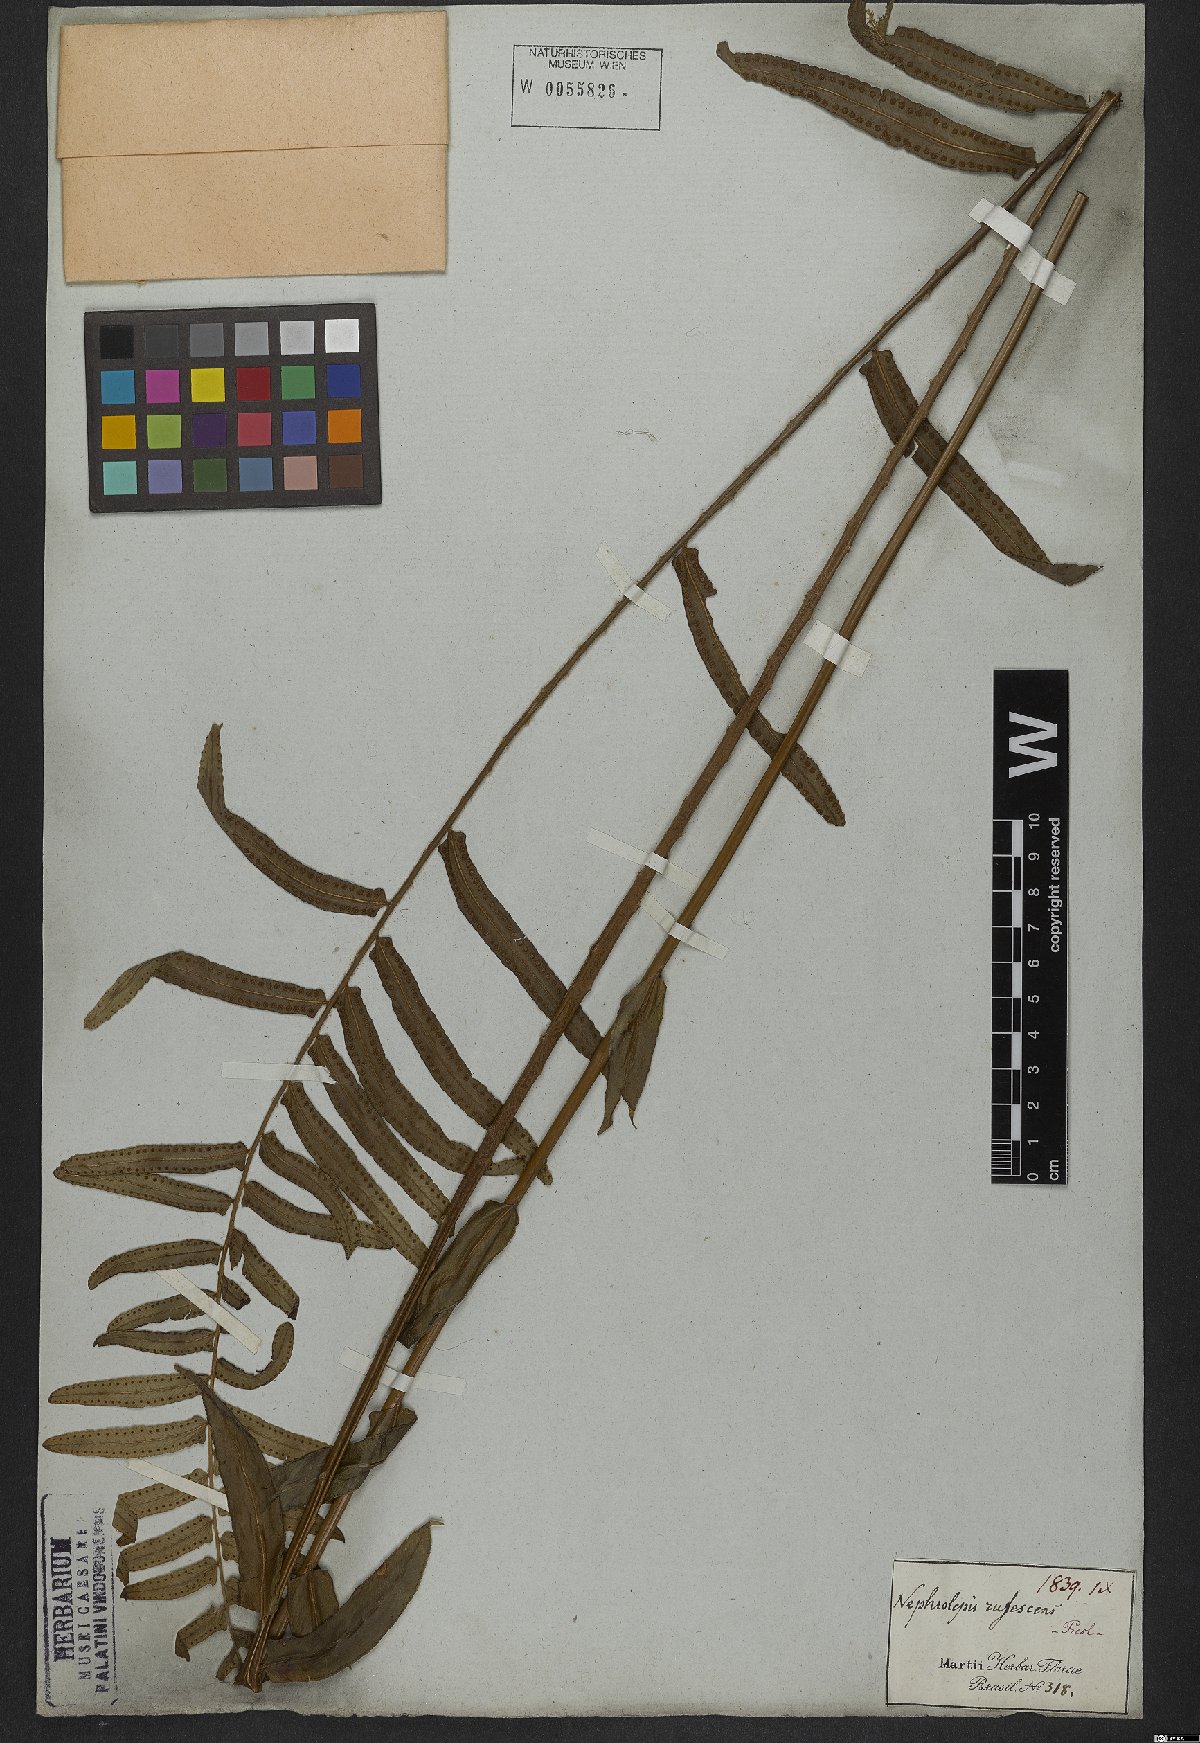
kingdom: Plantae
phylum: Tracheophyta
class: Polypodiopsida
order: Polypodiales
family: Nephrolepidaceae
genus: Nephrolepis
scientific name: Nephrolepis biserrata
